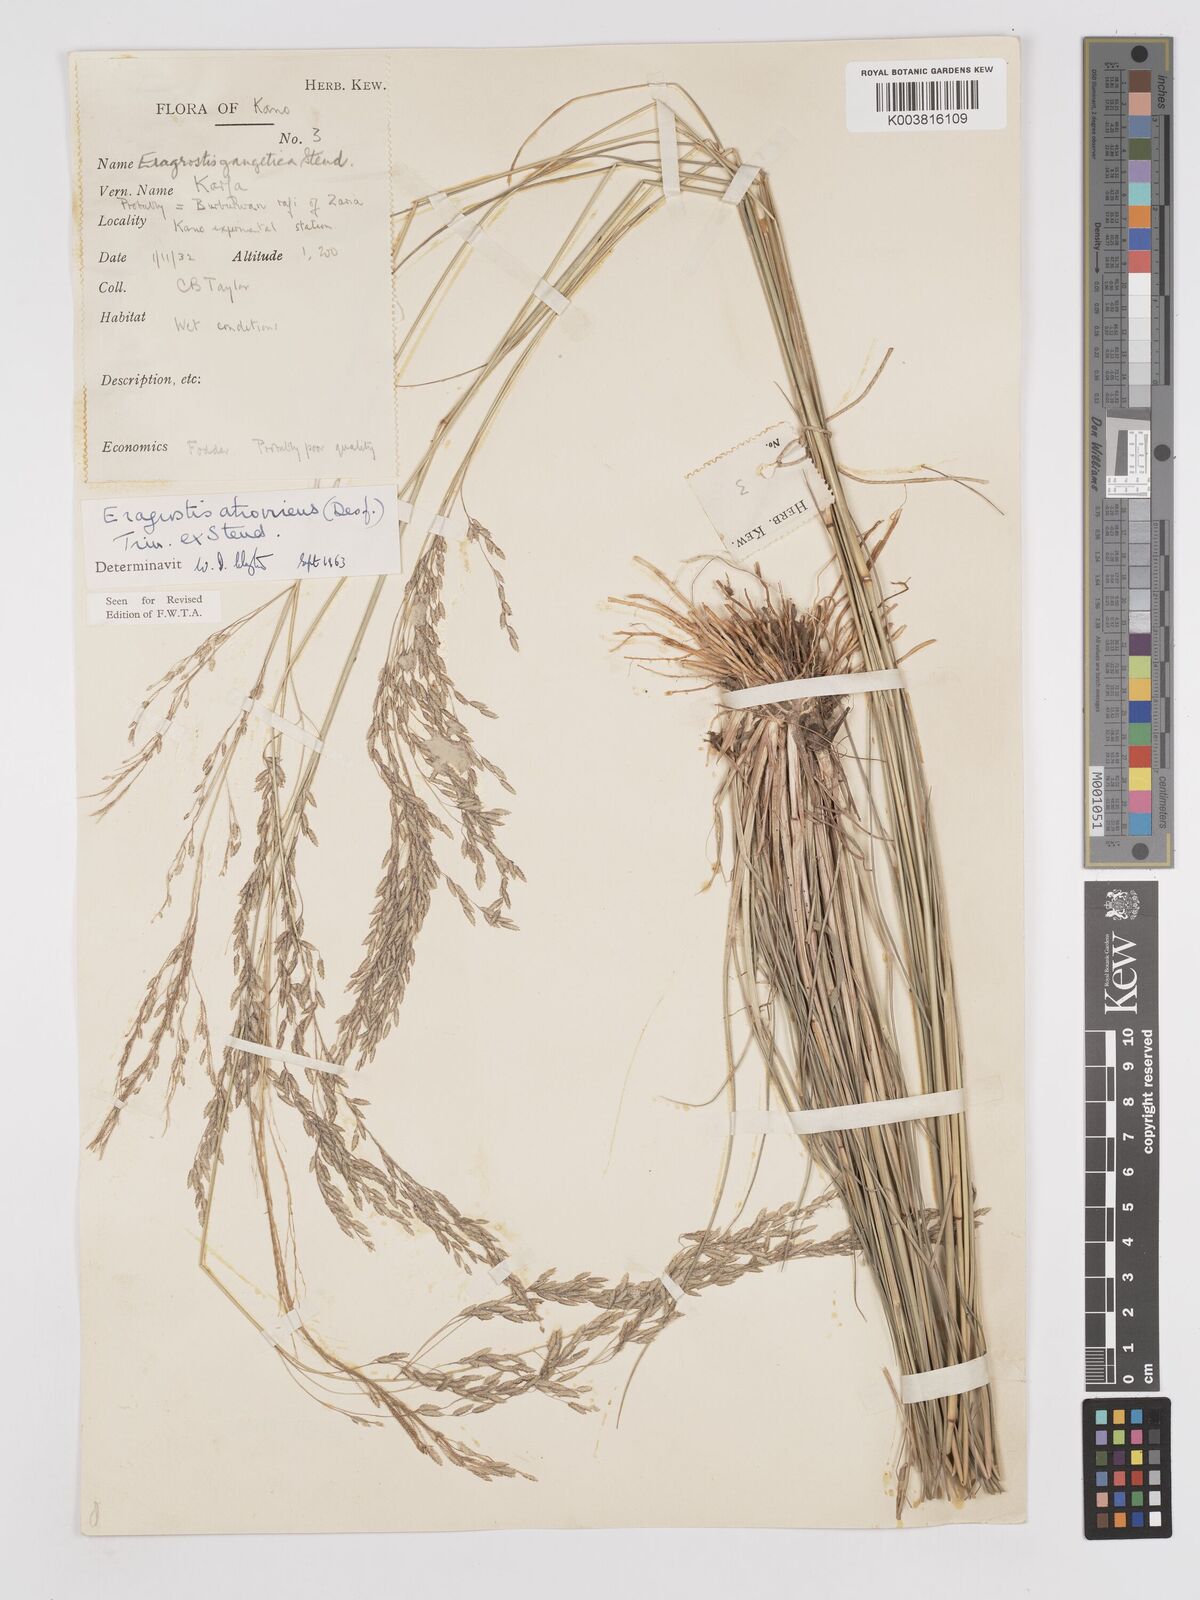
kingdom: Plantae
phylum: Tracheophyta
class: Liliopsida
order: Poales
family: Poaceae
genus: Eragrostis
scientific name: Eragrostis atrovirens
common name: Thalia lovegrass
